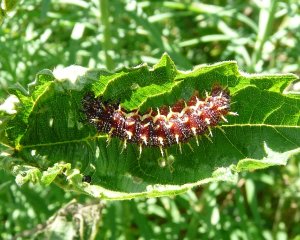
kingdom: Animalia
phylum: Arthropoda
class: Insecta
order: Lepidoptera
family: Nymphalidae
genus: Vanessa
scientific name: Vanessa atalanta
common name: Red Admiral
